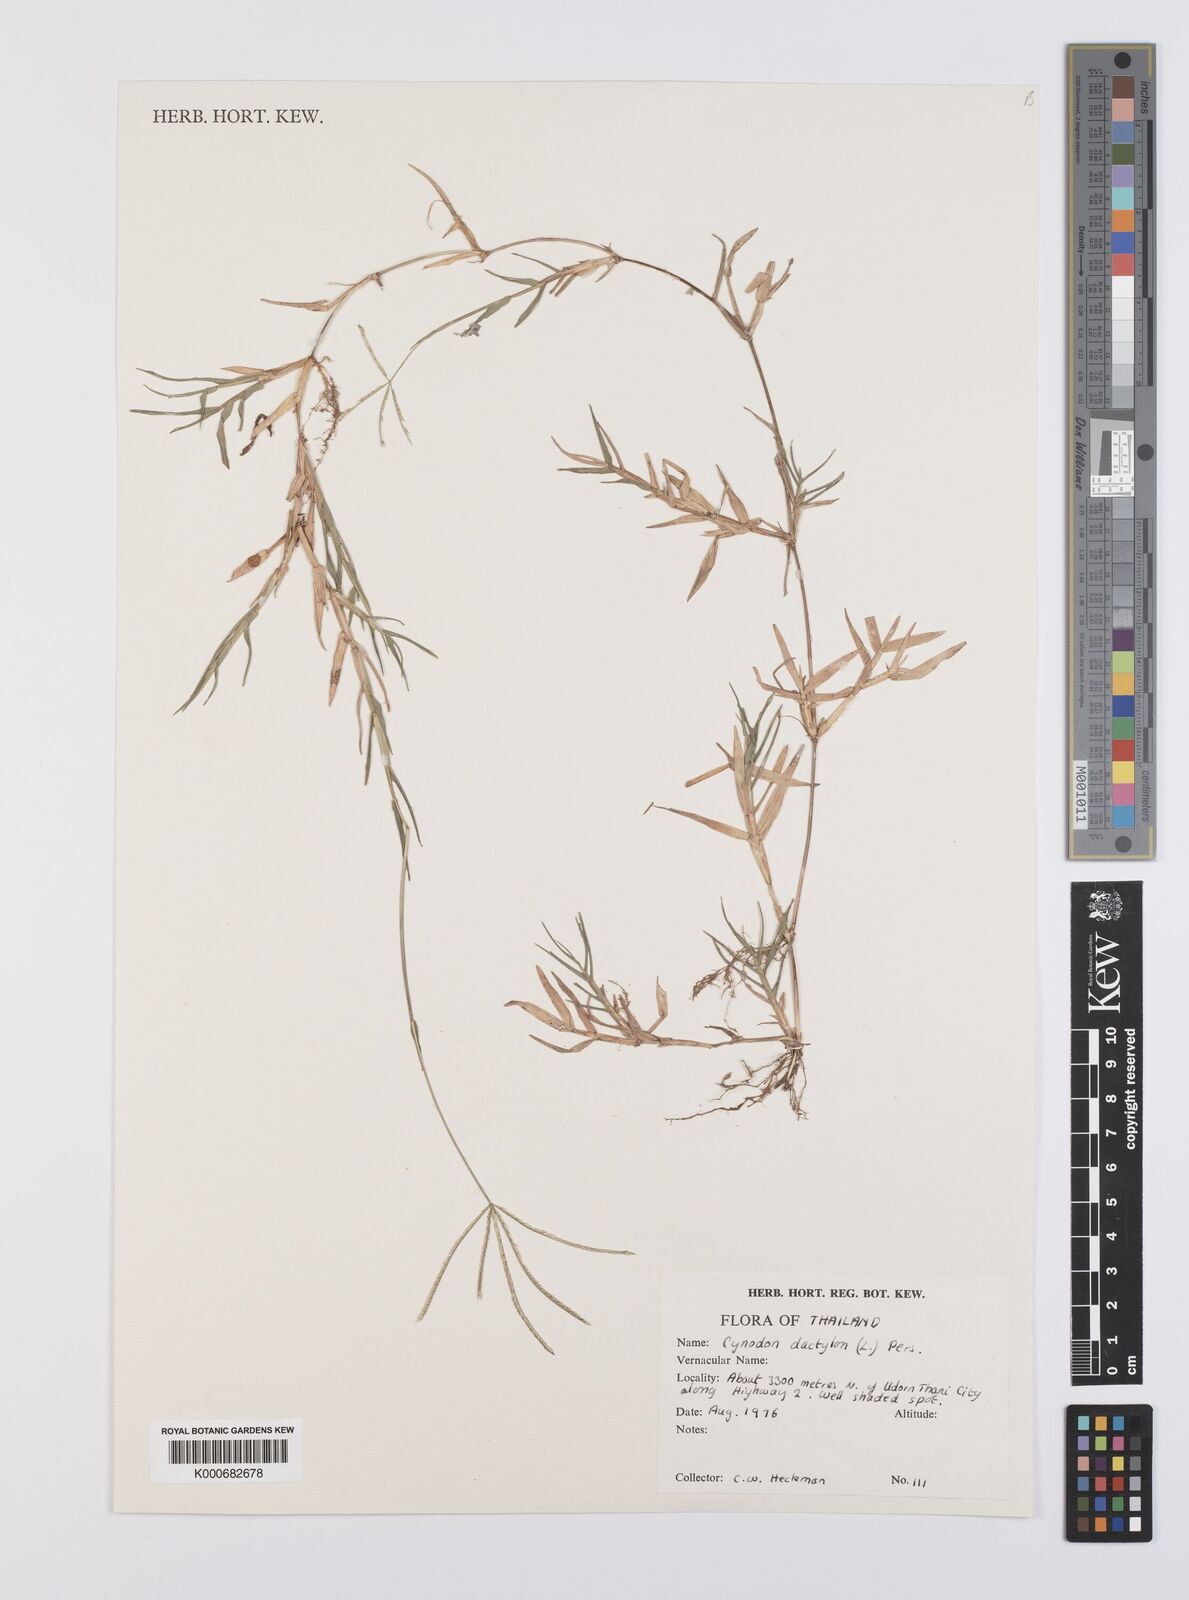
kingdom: Plantae
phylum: Tracheophyta
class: Liliopsida
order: Poales
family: Poaceae
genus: Cynodon
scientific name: Cynodon dactylon
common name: Bermuda grass
